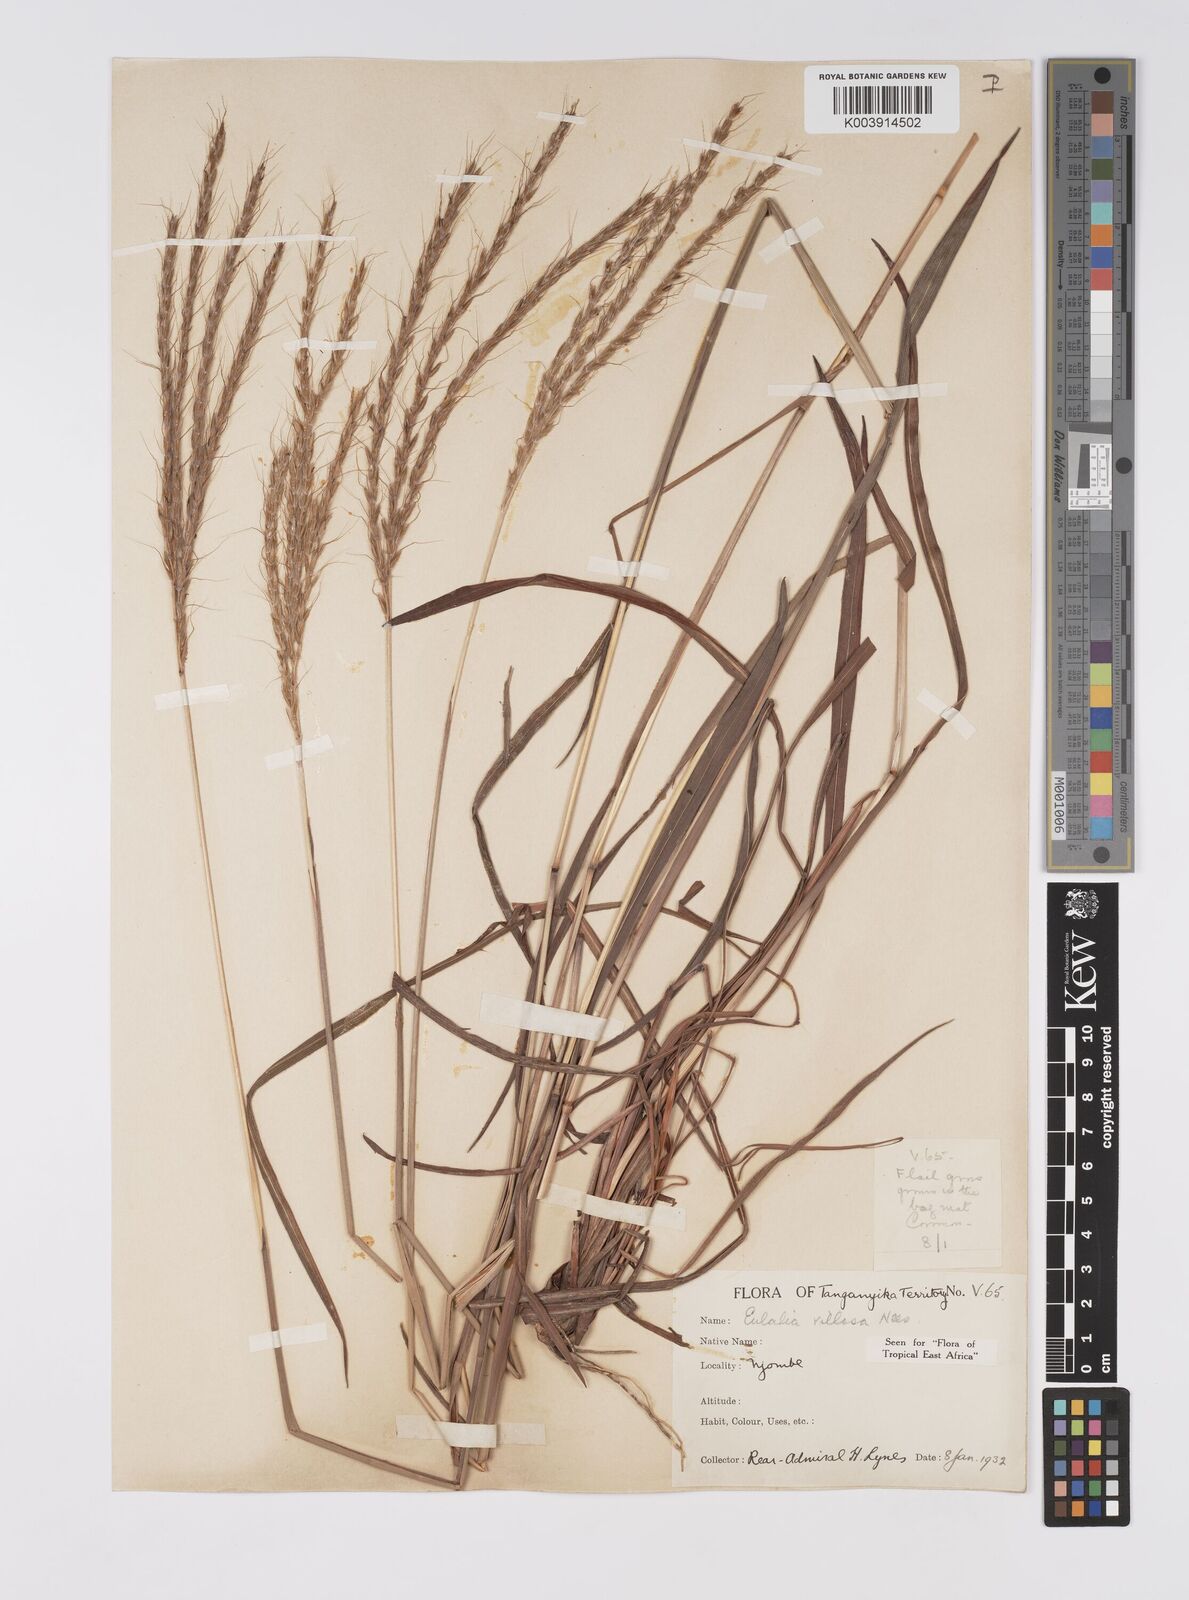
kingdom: Plantae
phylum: Tracheophyta
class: Liliopsida
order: Poales
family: Poaceae
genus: Eulalia
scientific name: Eulalia villosa
